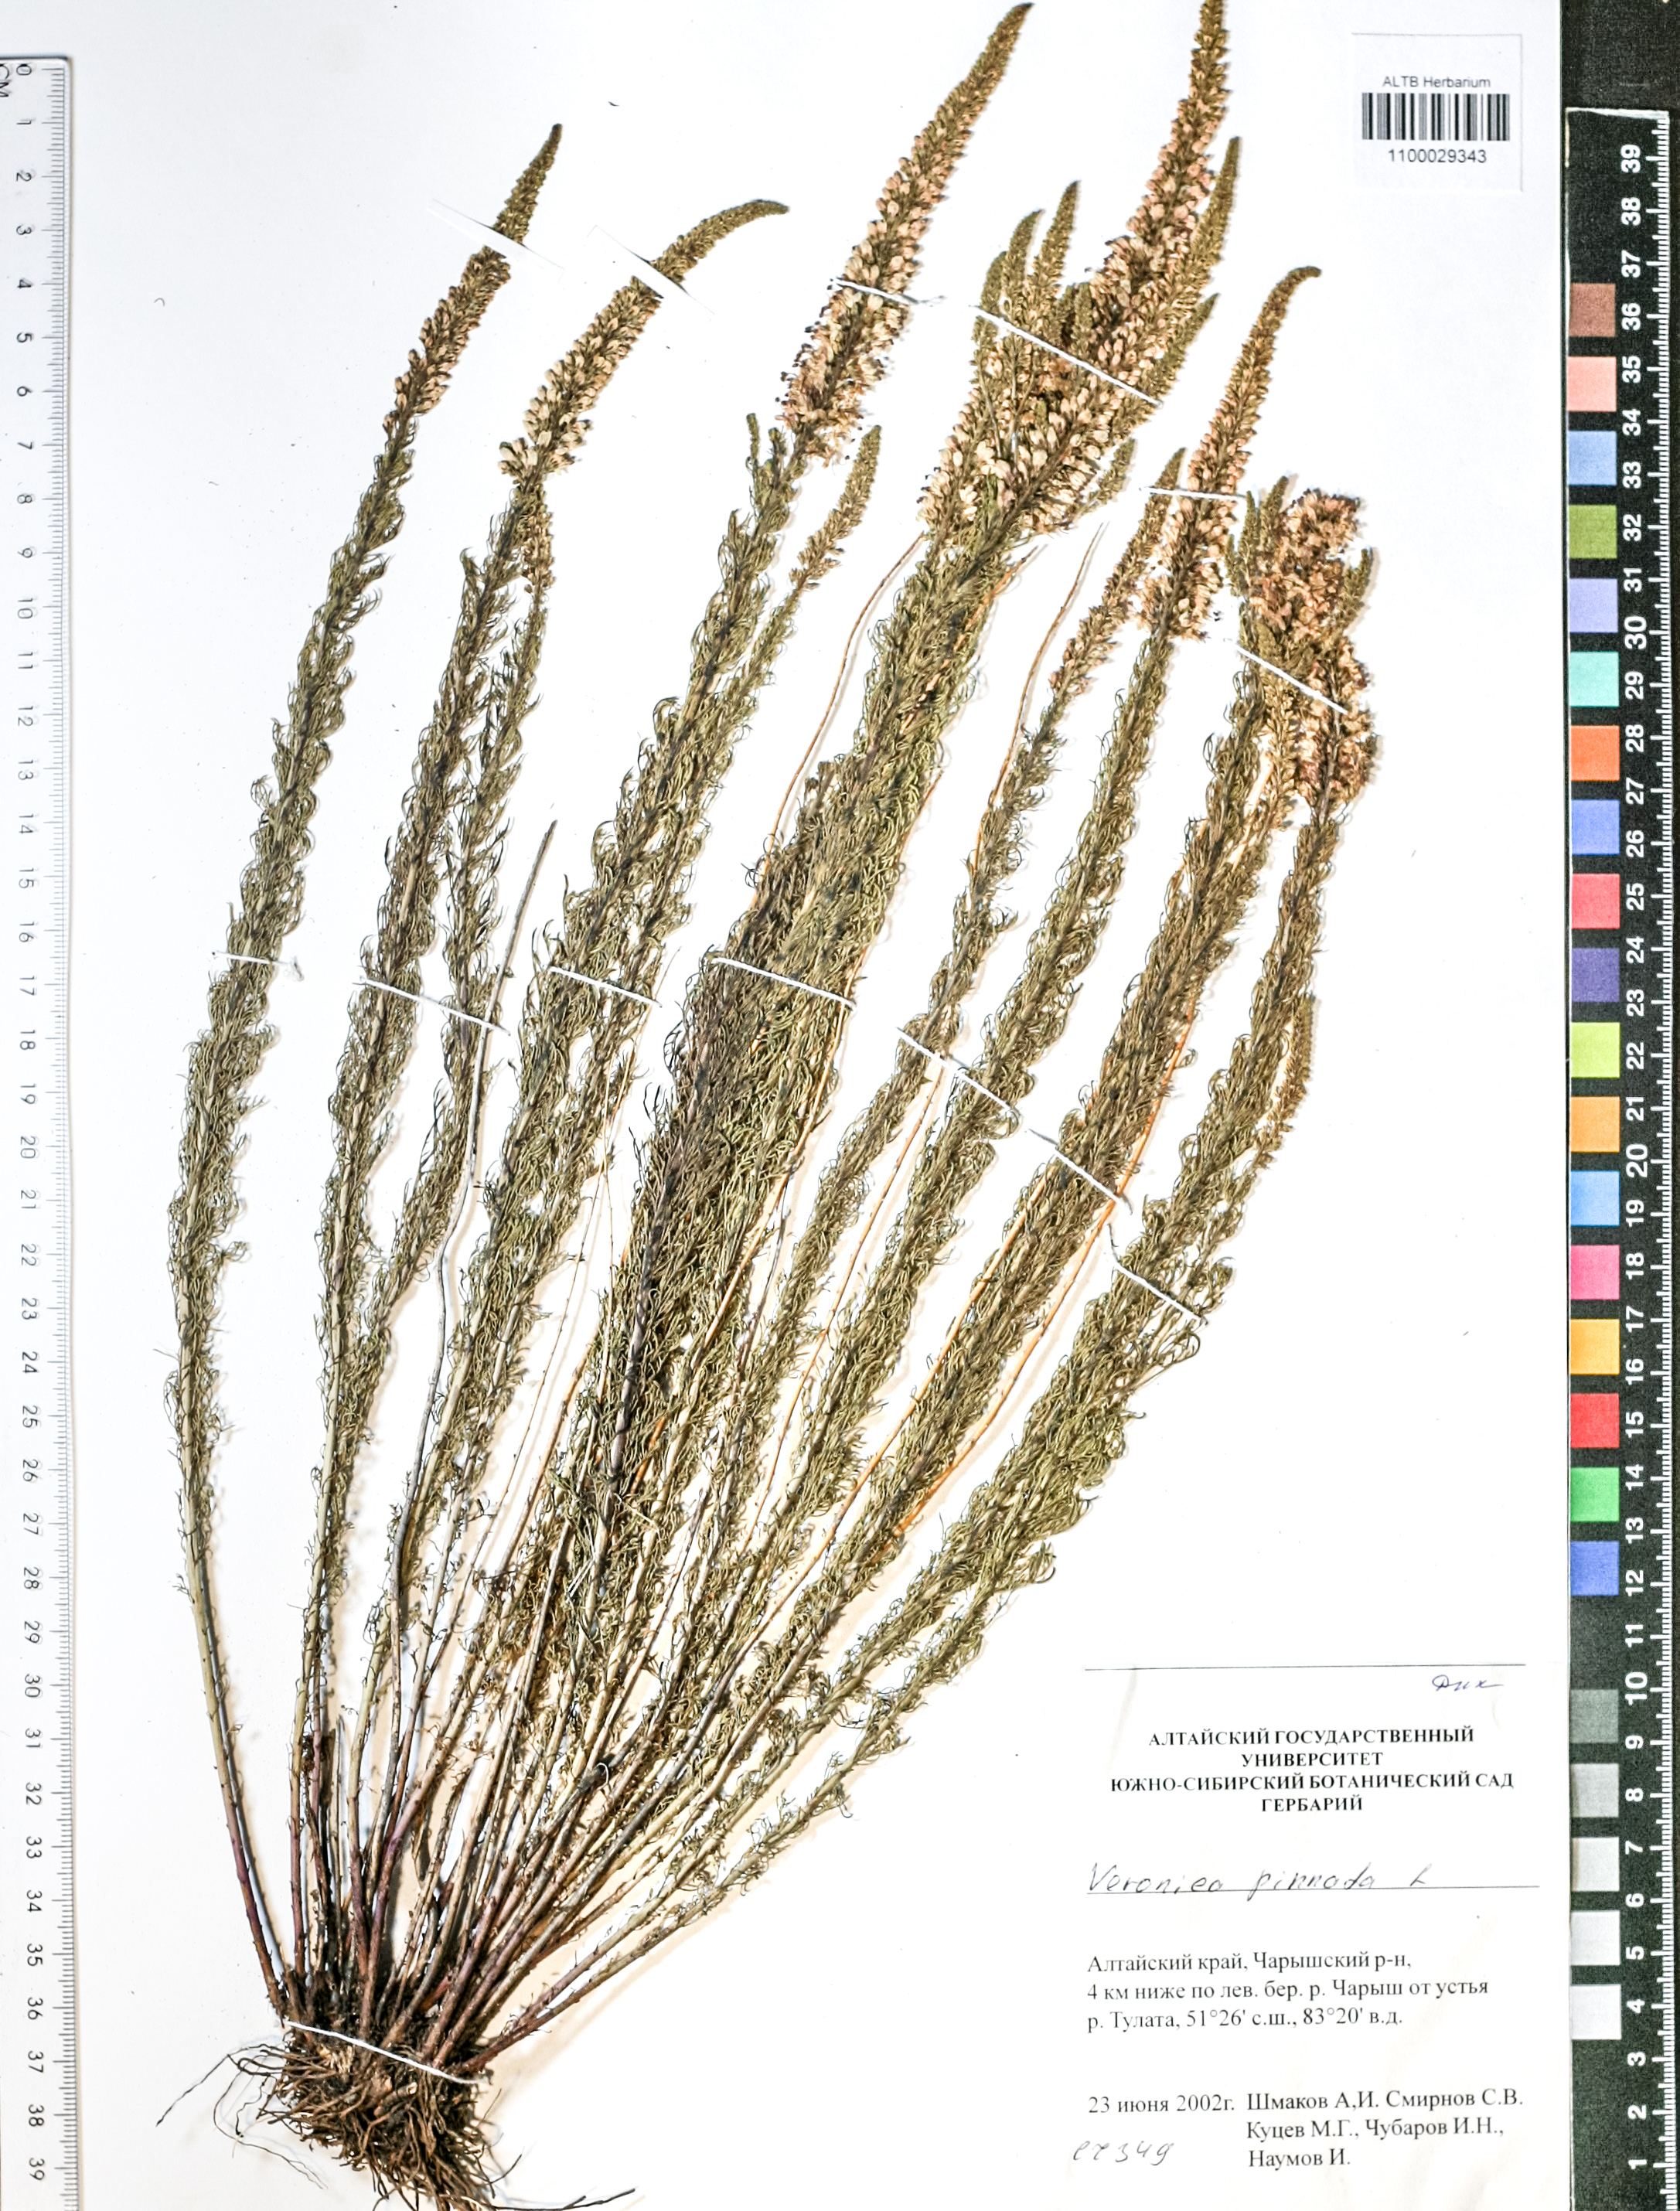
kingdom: Plantae
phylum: Tracheophyta
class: Magnoliopsida
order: Lamiales
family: Plantaginaceae
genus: Veronica
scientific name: Veronica pinnata
